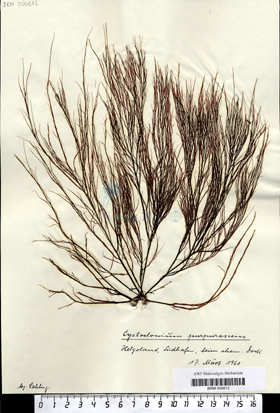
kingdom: Plantae
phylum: Rhodophyta
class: Florideophyceae
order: Gigartinales
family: Cystocloniaceae
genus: Cystoclonium
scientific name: Cystoclonium purpureum
